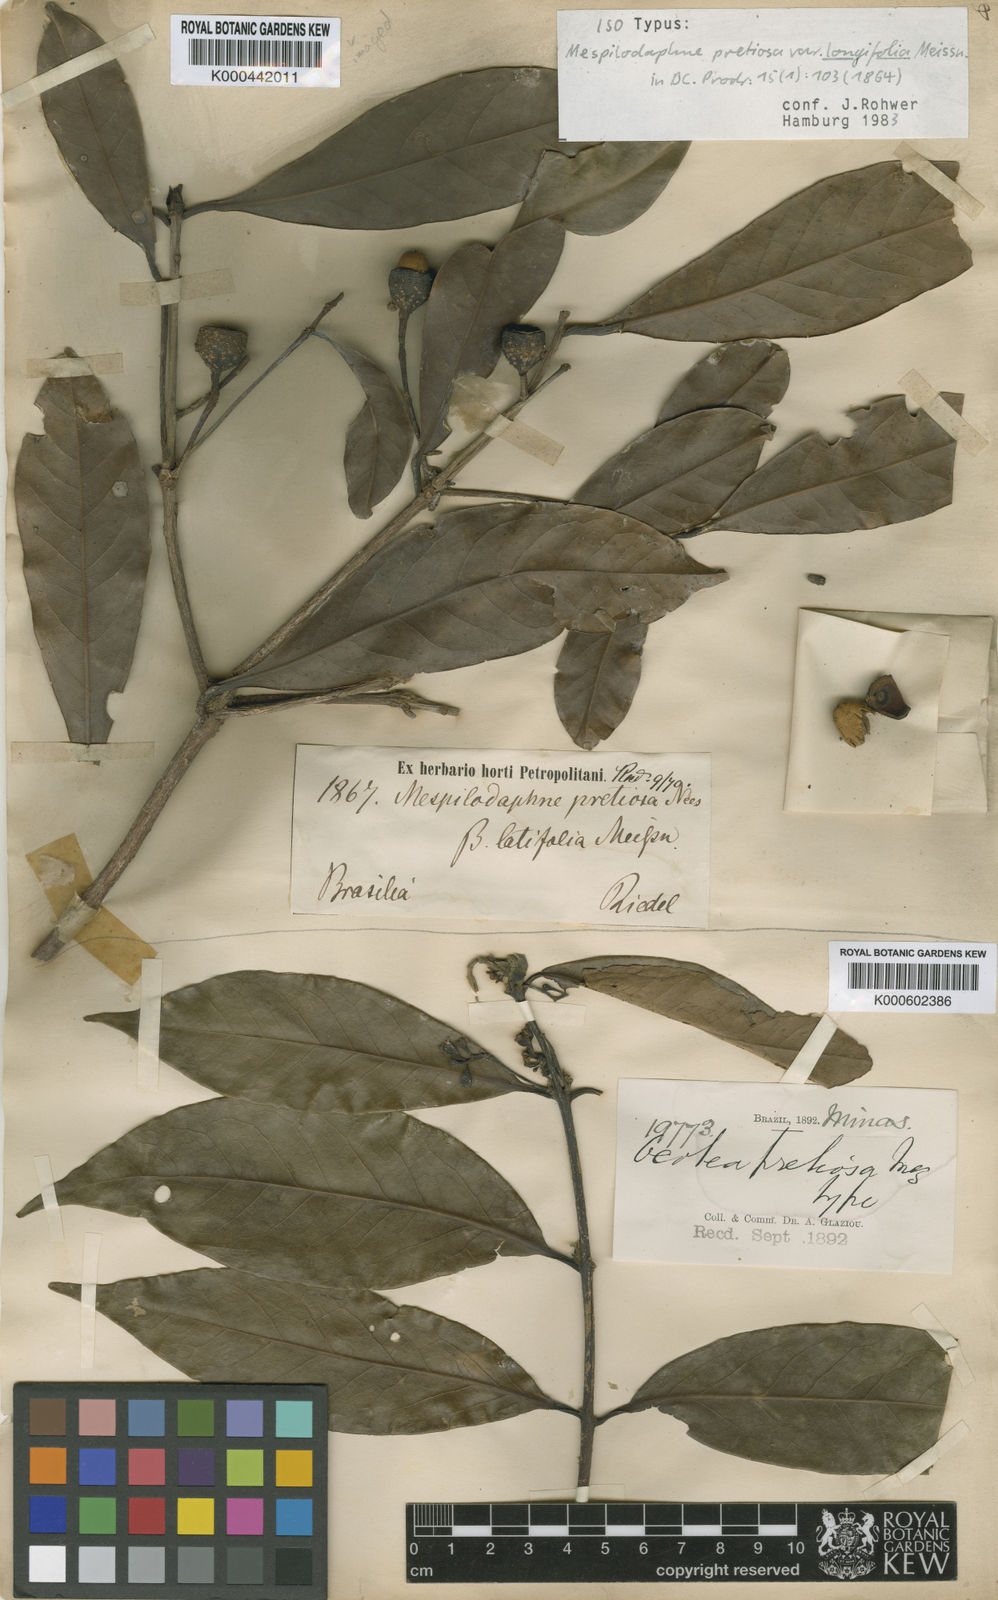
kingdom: Plantae
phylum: Tracheophyta
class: Magnoliopsida
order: Laurales
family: Lauraceae
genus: Mespilodaphne
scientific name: Mespilodaphne quixos
